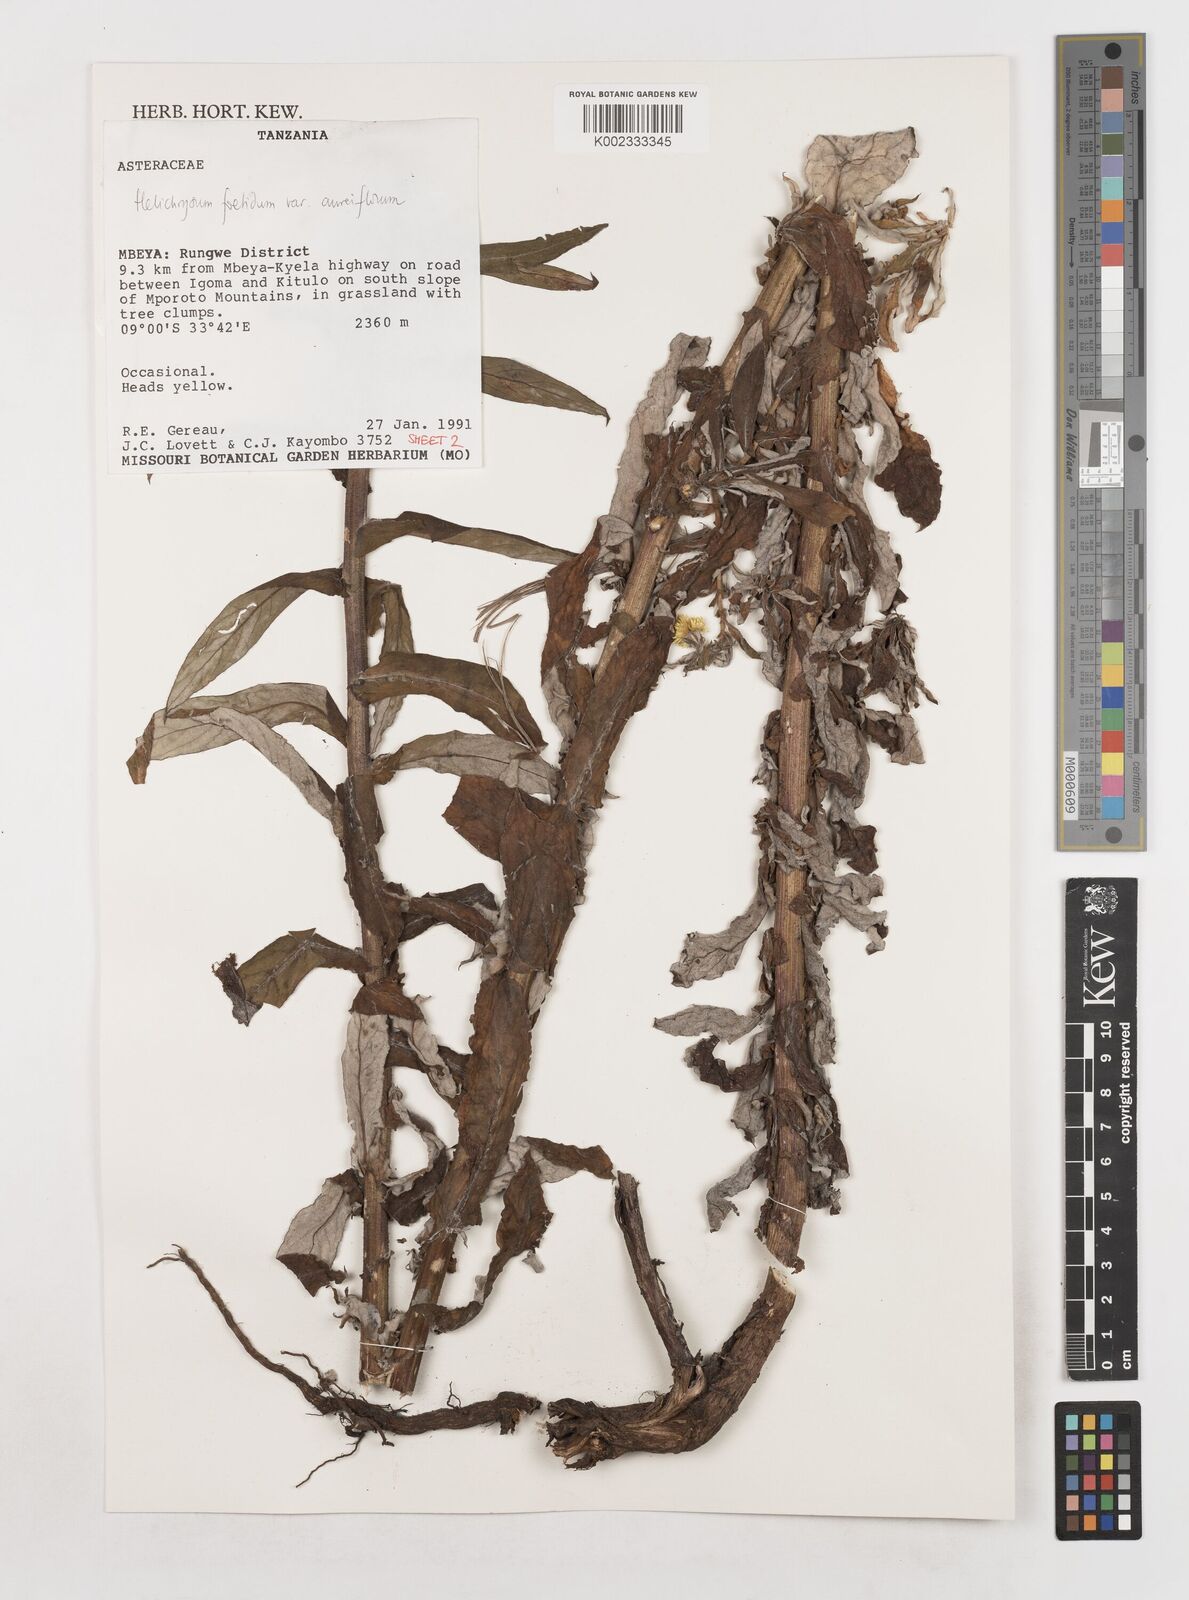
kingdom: Plantae
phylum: Tracheophyta
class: Magnoliopsida
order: Asterales
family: Asteraceae
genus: Helichrysum
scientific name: Helichrysum foetidum
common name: Stinking everlasting
